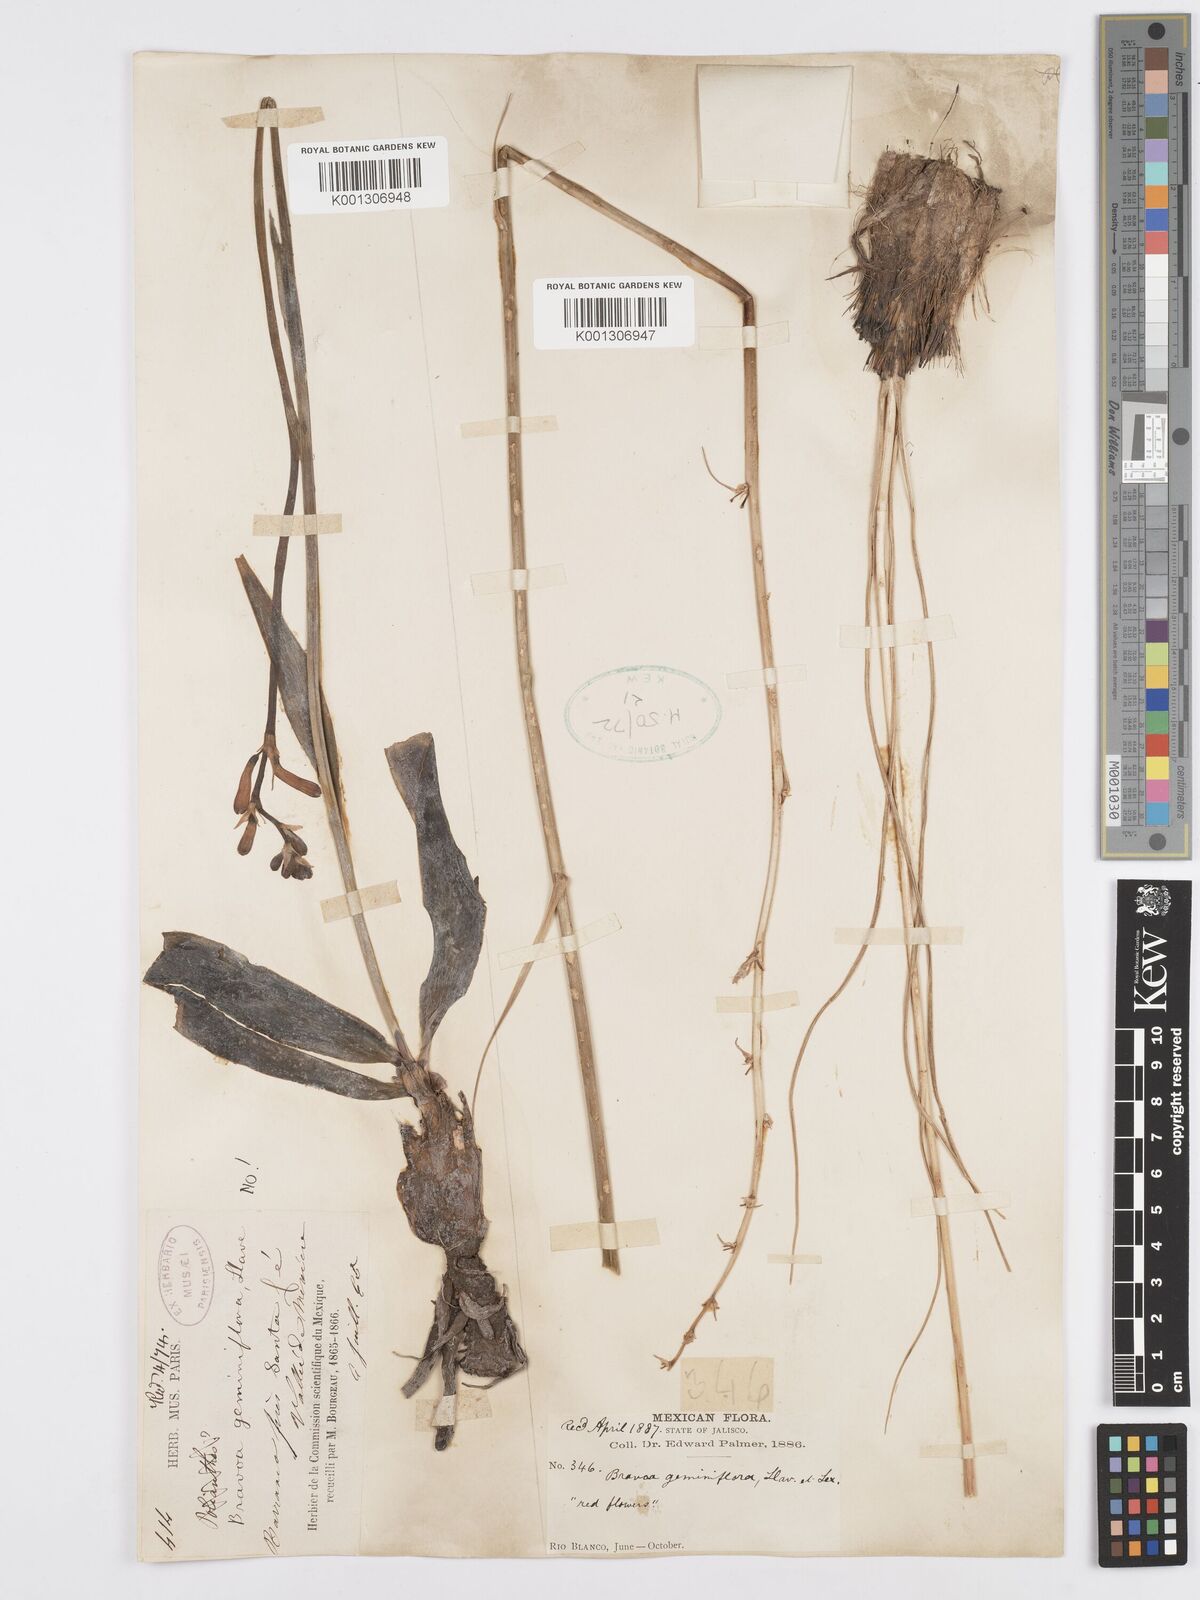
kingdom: Plantae
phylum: Tracheophyta
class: Liliopsida
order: Asparagales
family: Asparagaceae
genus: Agave
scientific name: Agave coetocapnia
